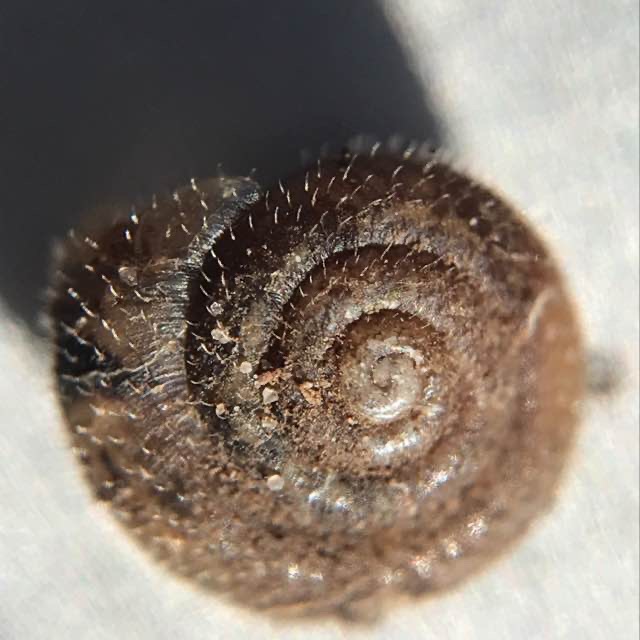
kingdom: Animalia
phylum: Mollusca
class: Gastropoda
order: Stylommatophora
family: Hygromiidae
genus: Trochulus
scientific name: Trochulus hispidus
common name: Håret snegl
